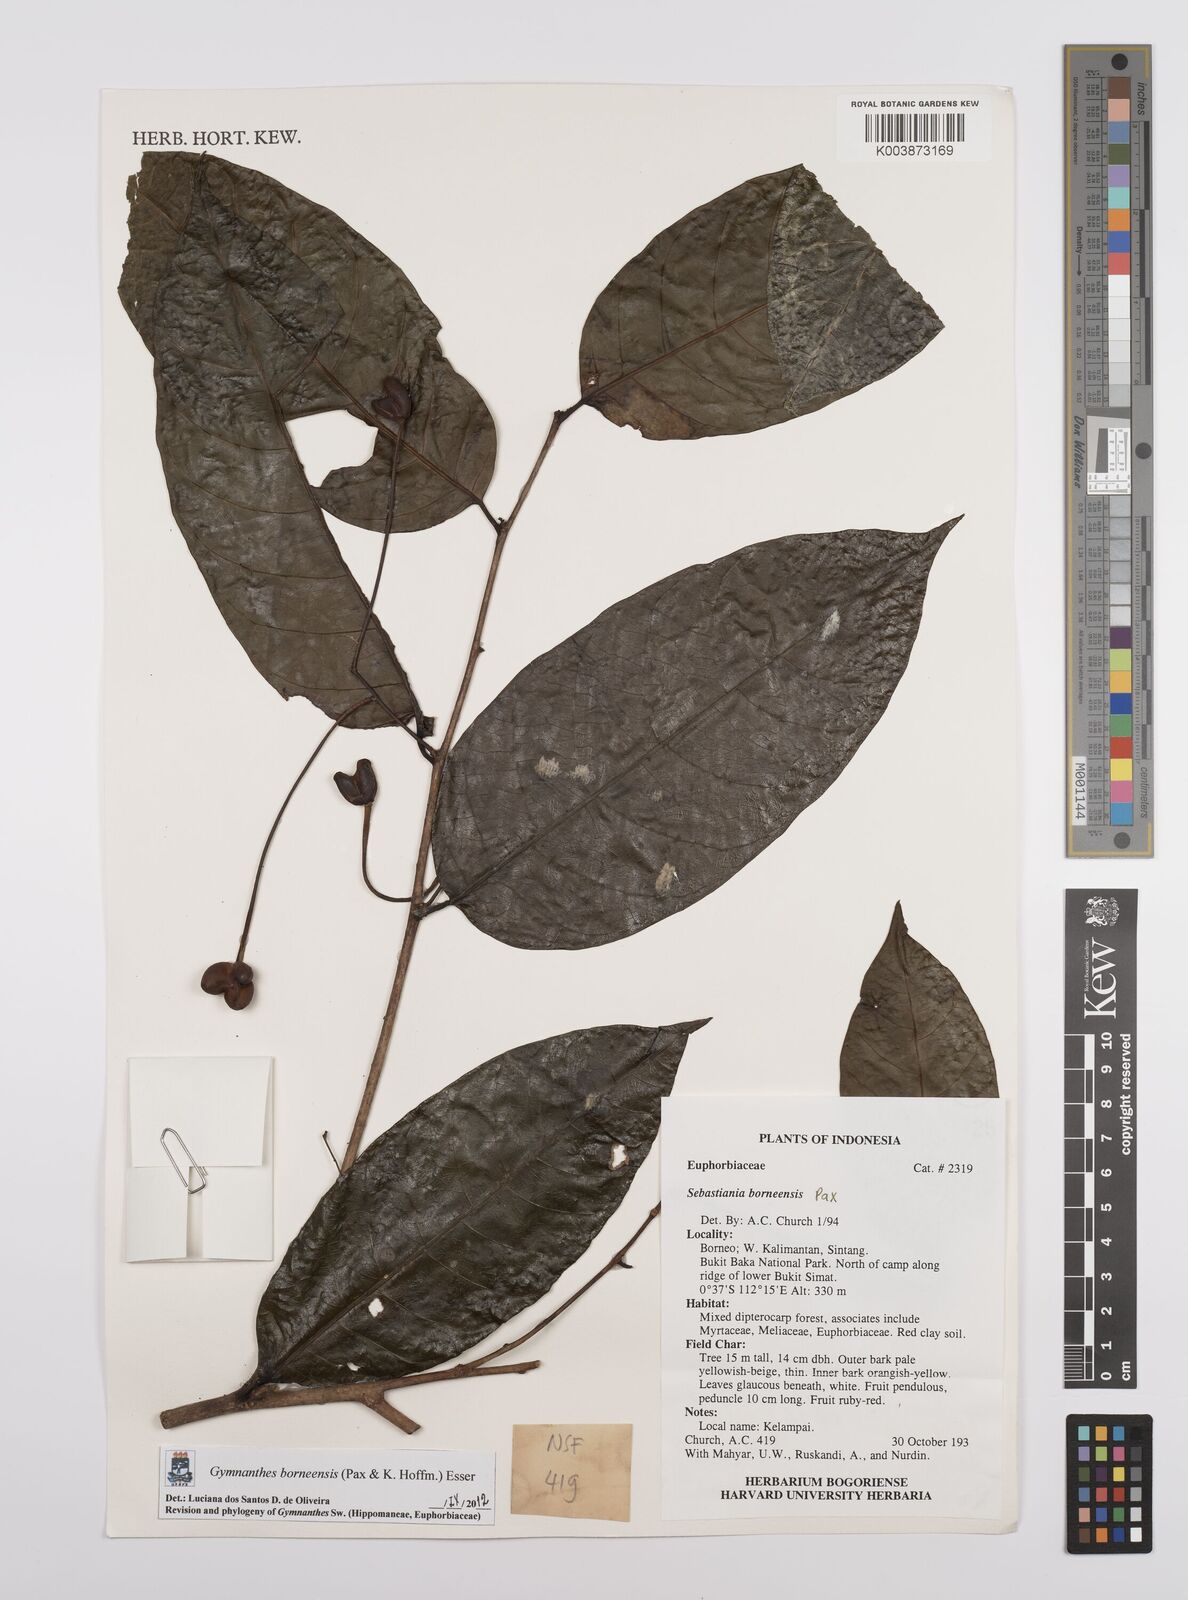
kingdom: Plantae
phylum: Tracheophyta
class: Magnoliopsida
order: Malpighiales
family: Euphorbiaceae
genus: Gymnanthes
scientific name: Gymnanthes borneensis
